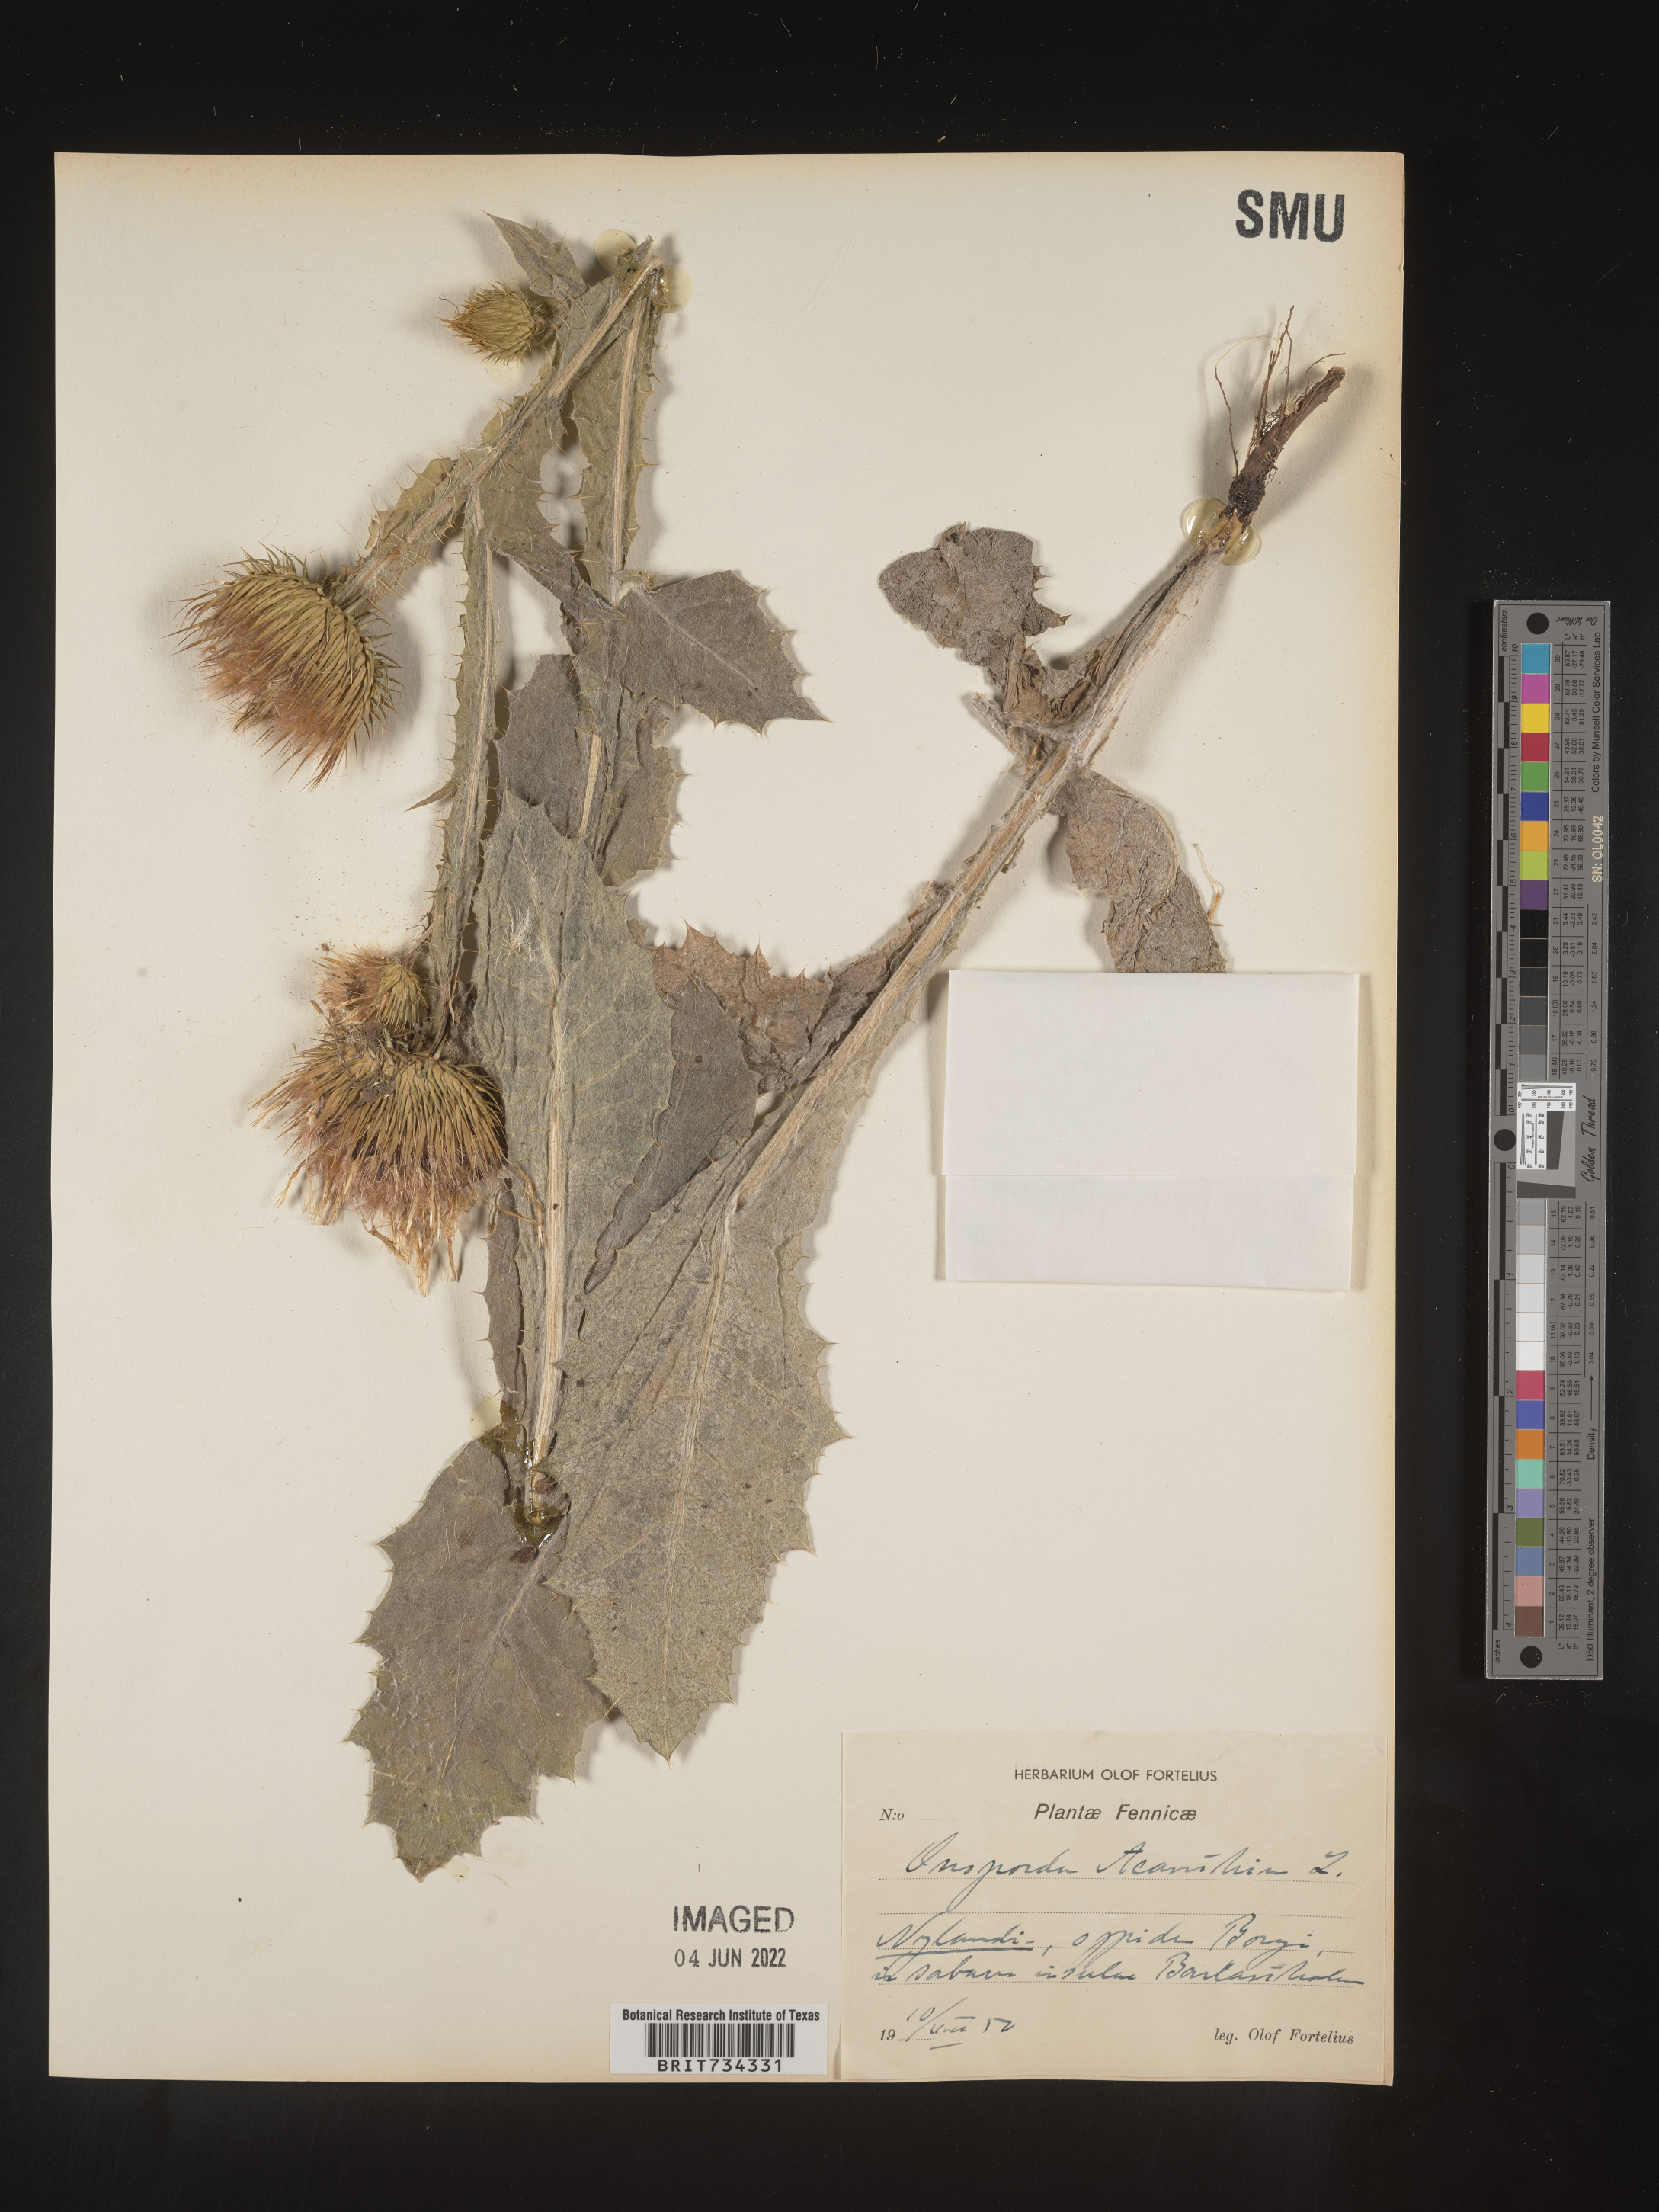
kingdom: Plantae
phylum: Tracheophyta
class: Magnoliopsida
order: Asterales
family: Asteraceae
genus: Onopordum
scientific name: Onopordum
